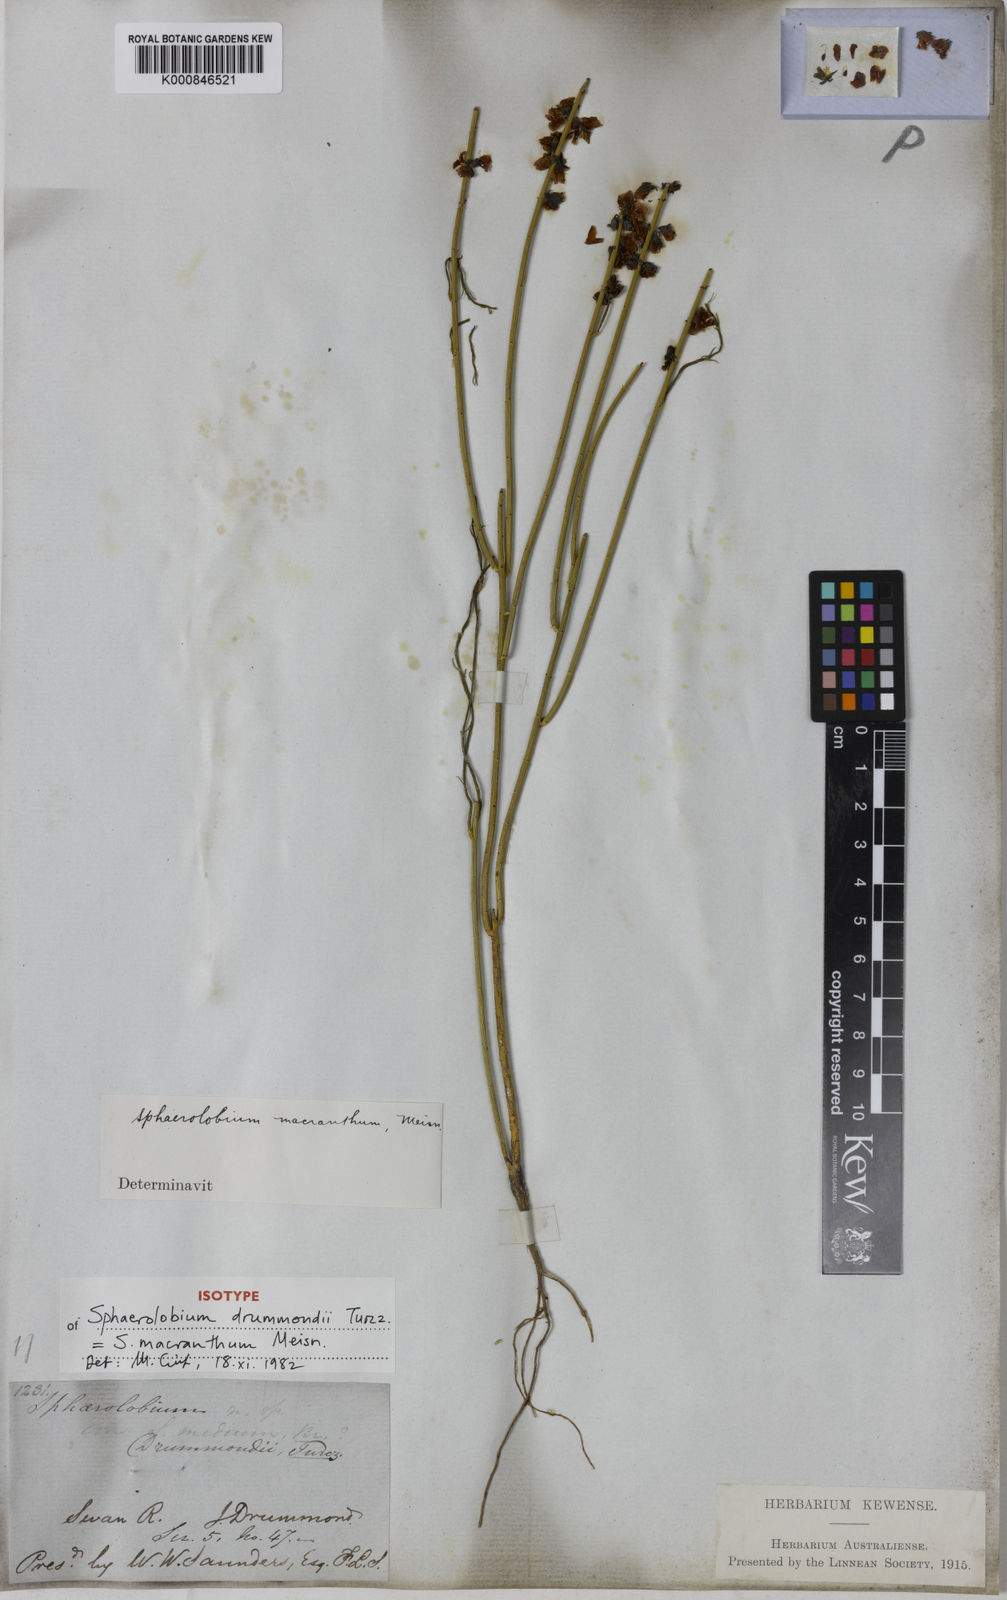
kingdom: Plantae
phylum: Tracheophyta
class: Magnoliopsida
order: Fabales
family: Fabaceae
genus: Sphaerolobium
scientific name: Sphaerolobium macranthum
